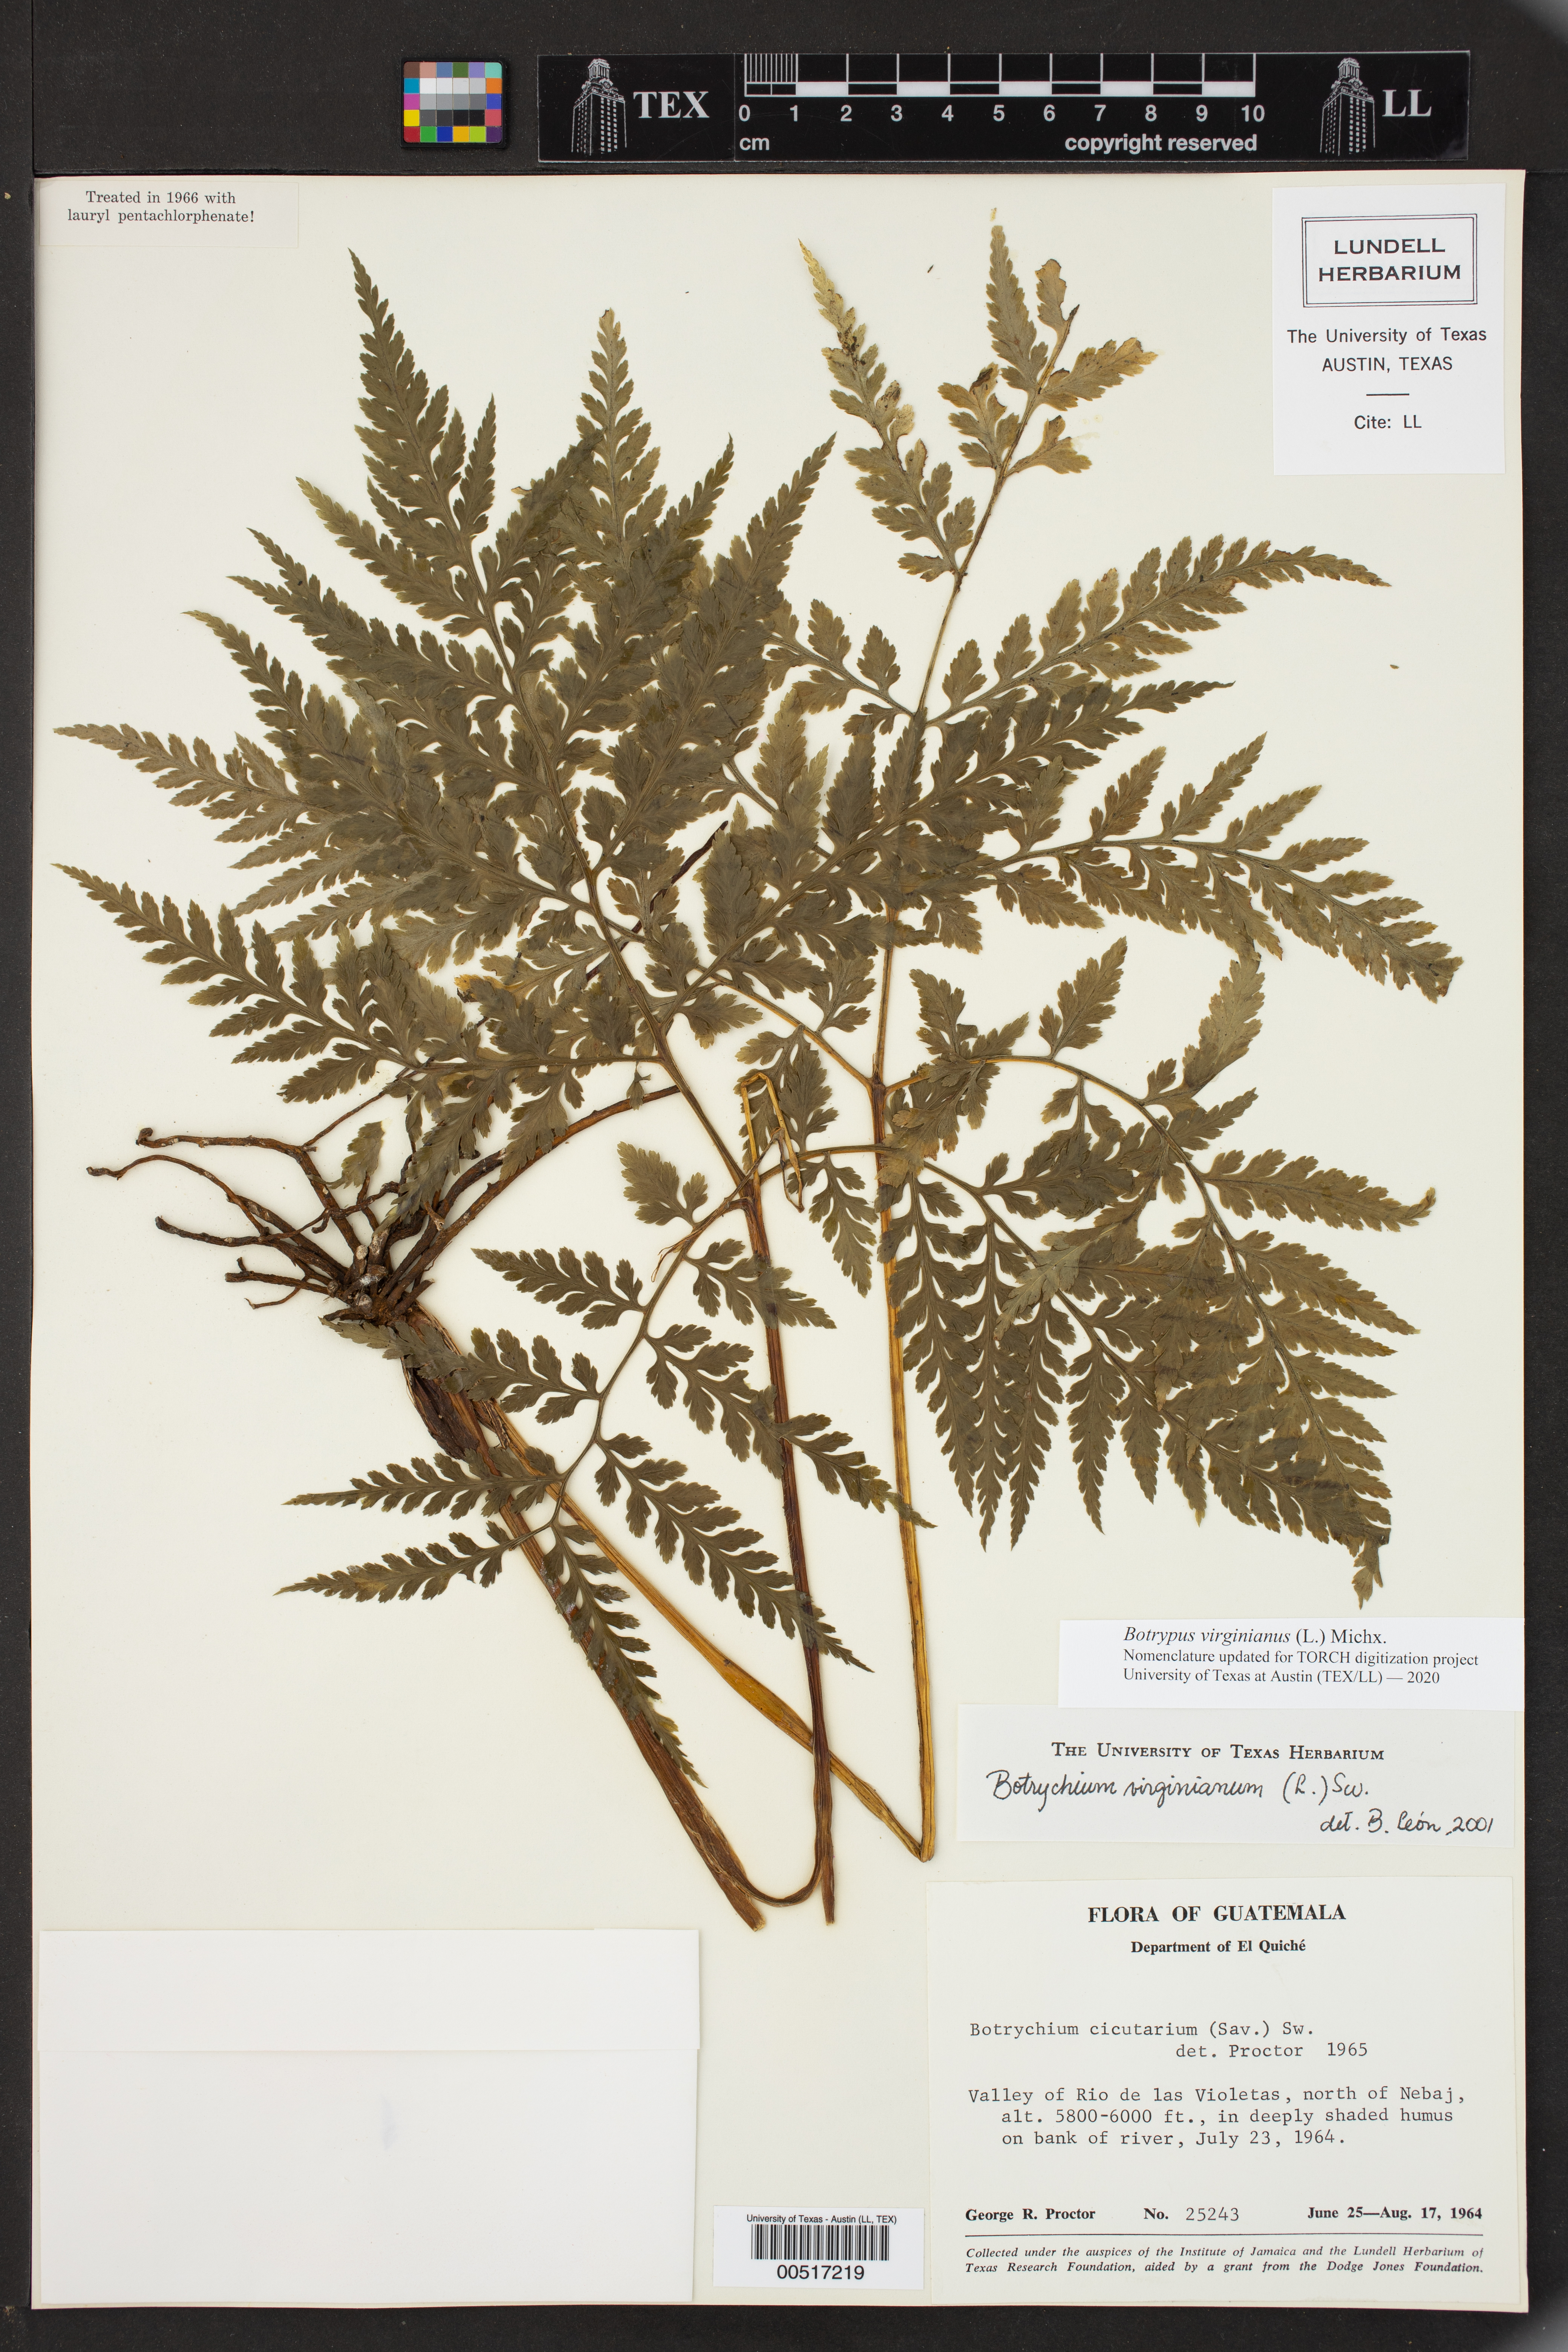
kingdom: Plantae
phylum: Tracheophyta
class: Polypodiopsida
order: Ophioglossales
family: Ophioglossaceae
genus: Botrypus
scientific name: Botrypus virginianus
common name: Common grapefern
